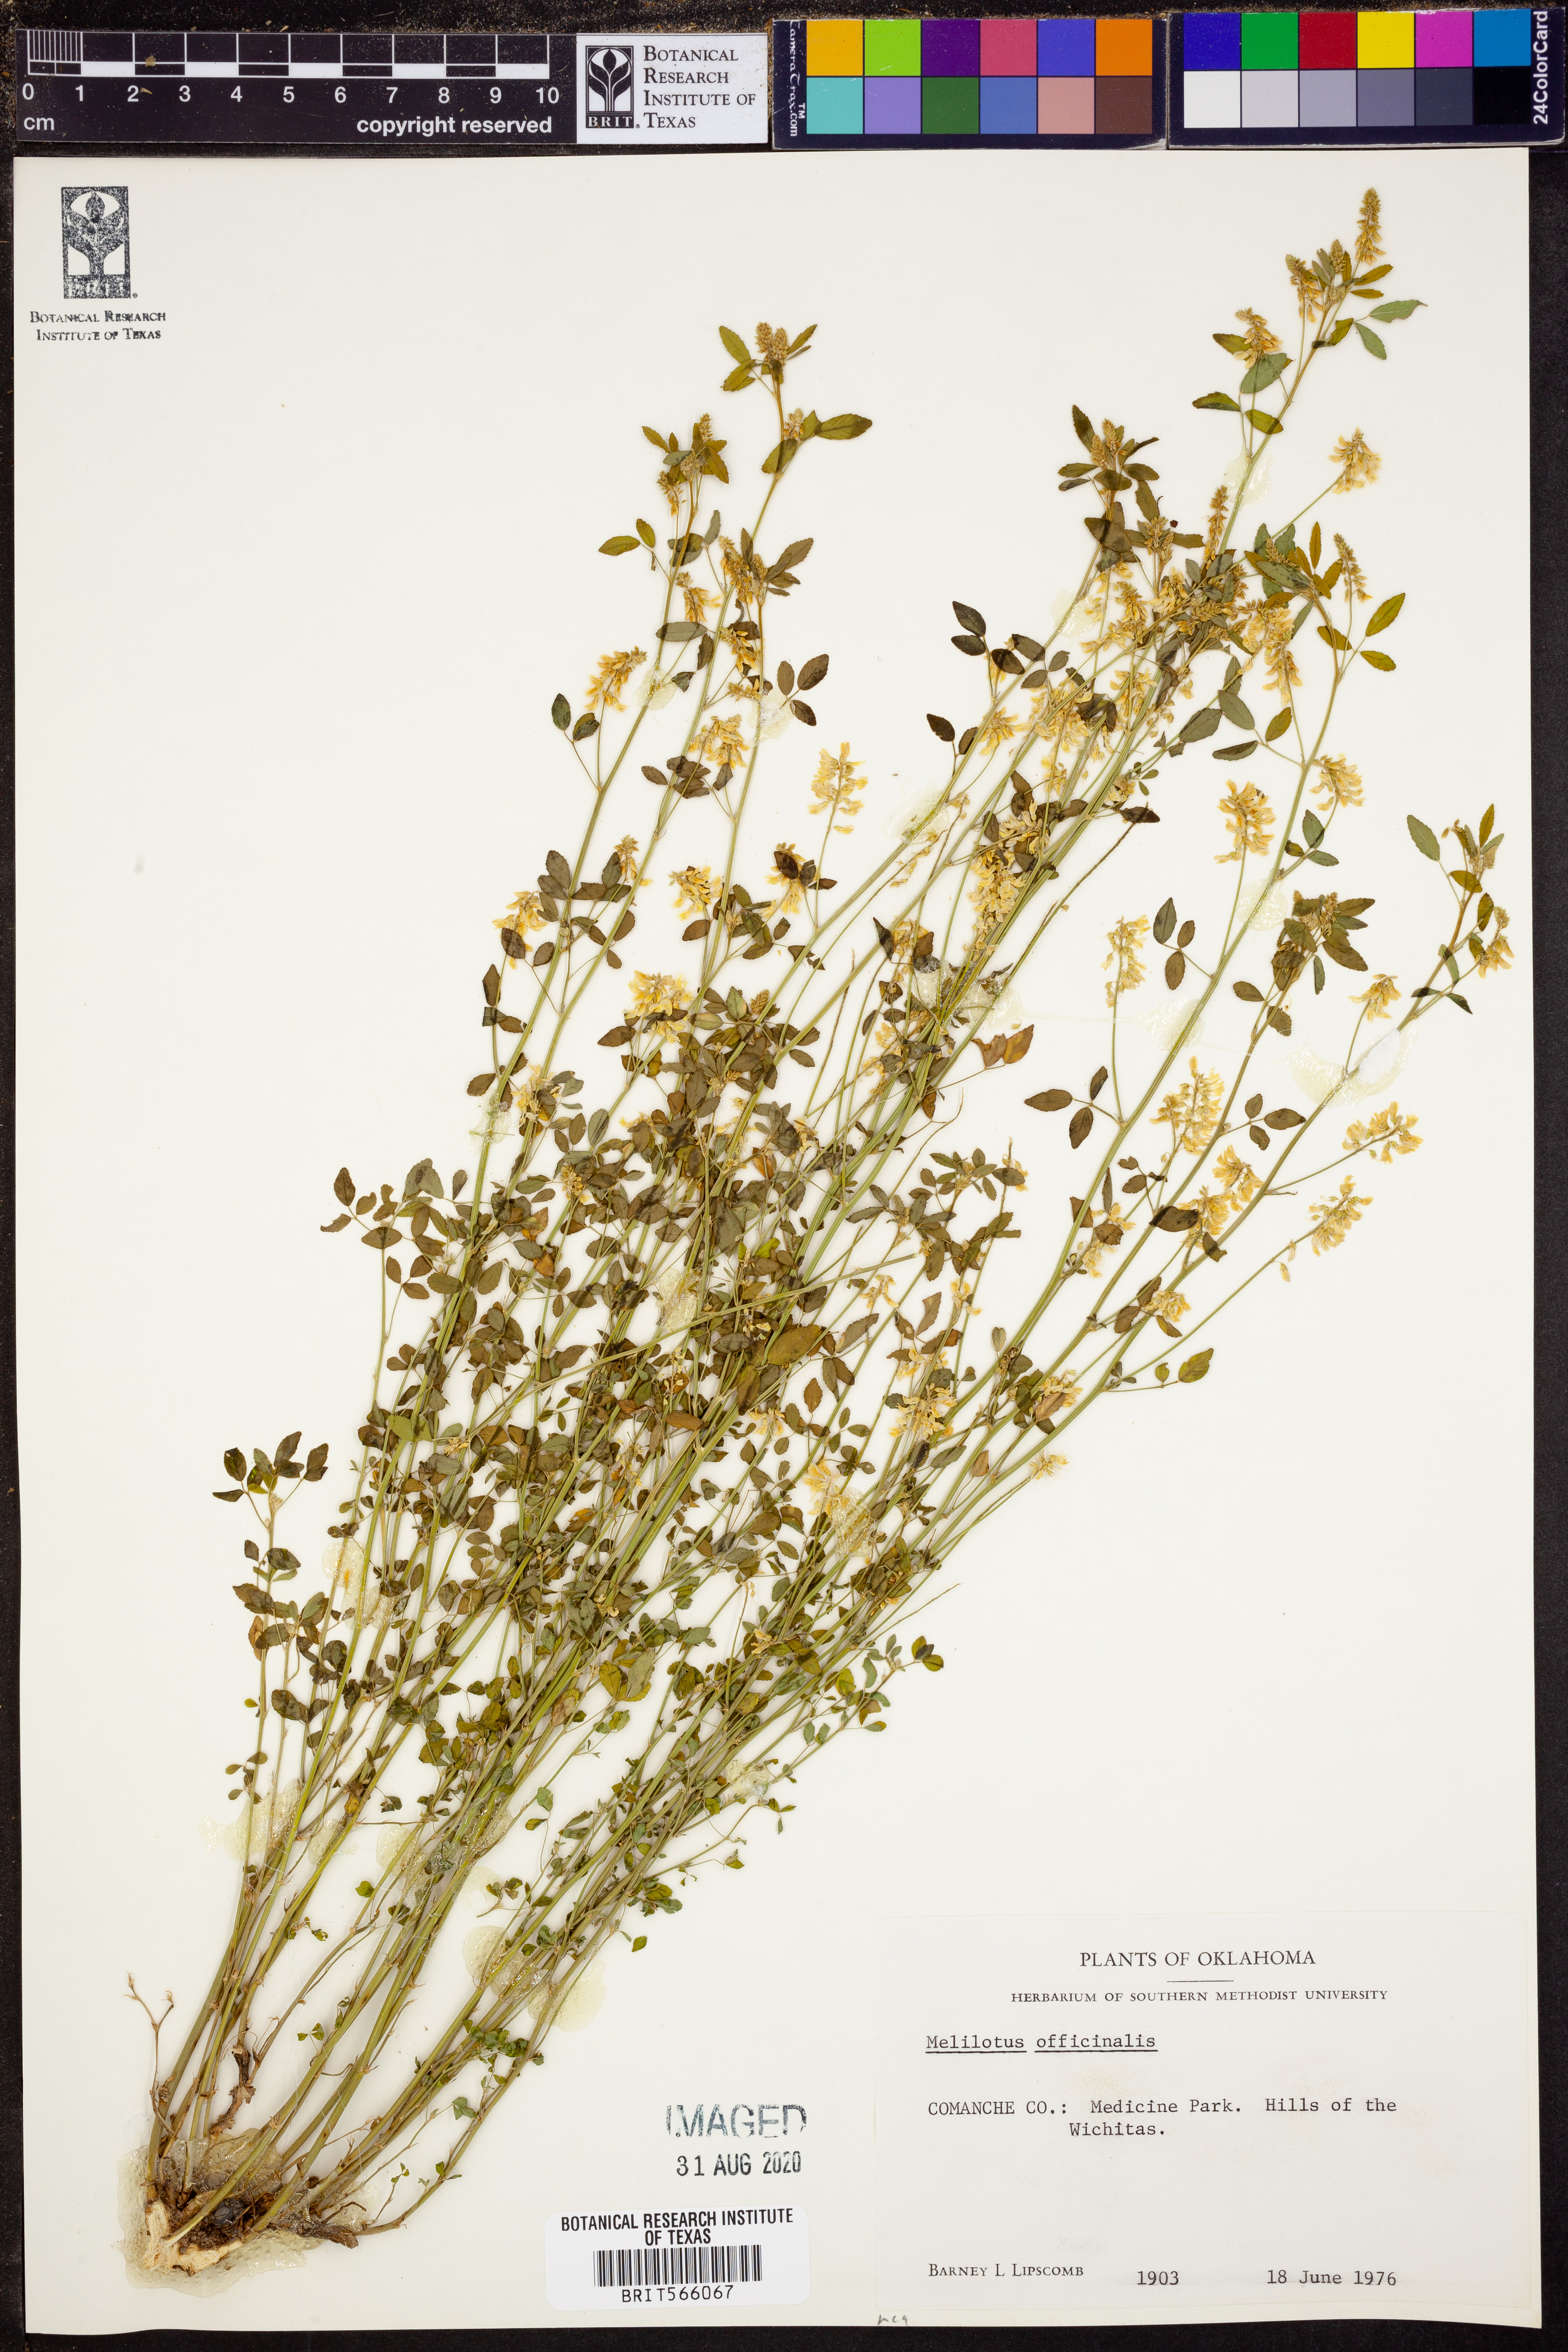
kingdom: Plantae
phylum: Tracheophyta
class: Magnoliopsida
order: Fabales
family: Fabaceae
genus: Melilotus
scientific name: Melilotus officinalis
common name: Sweetclover
